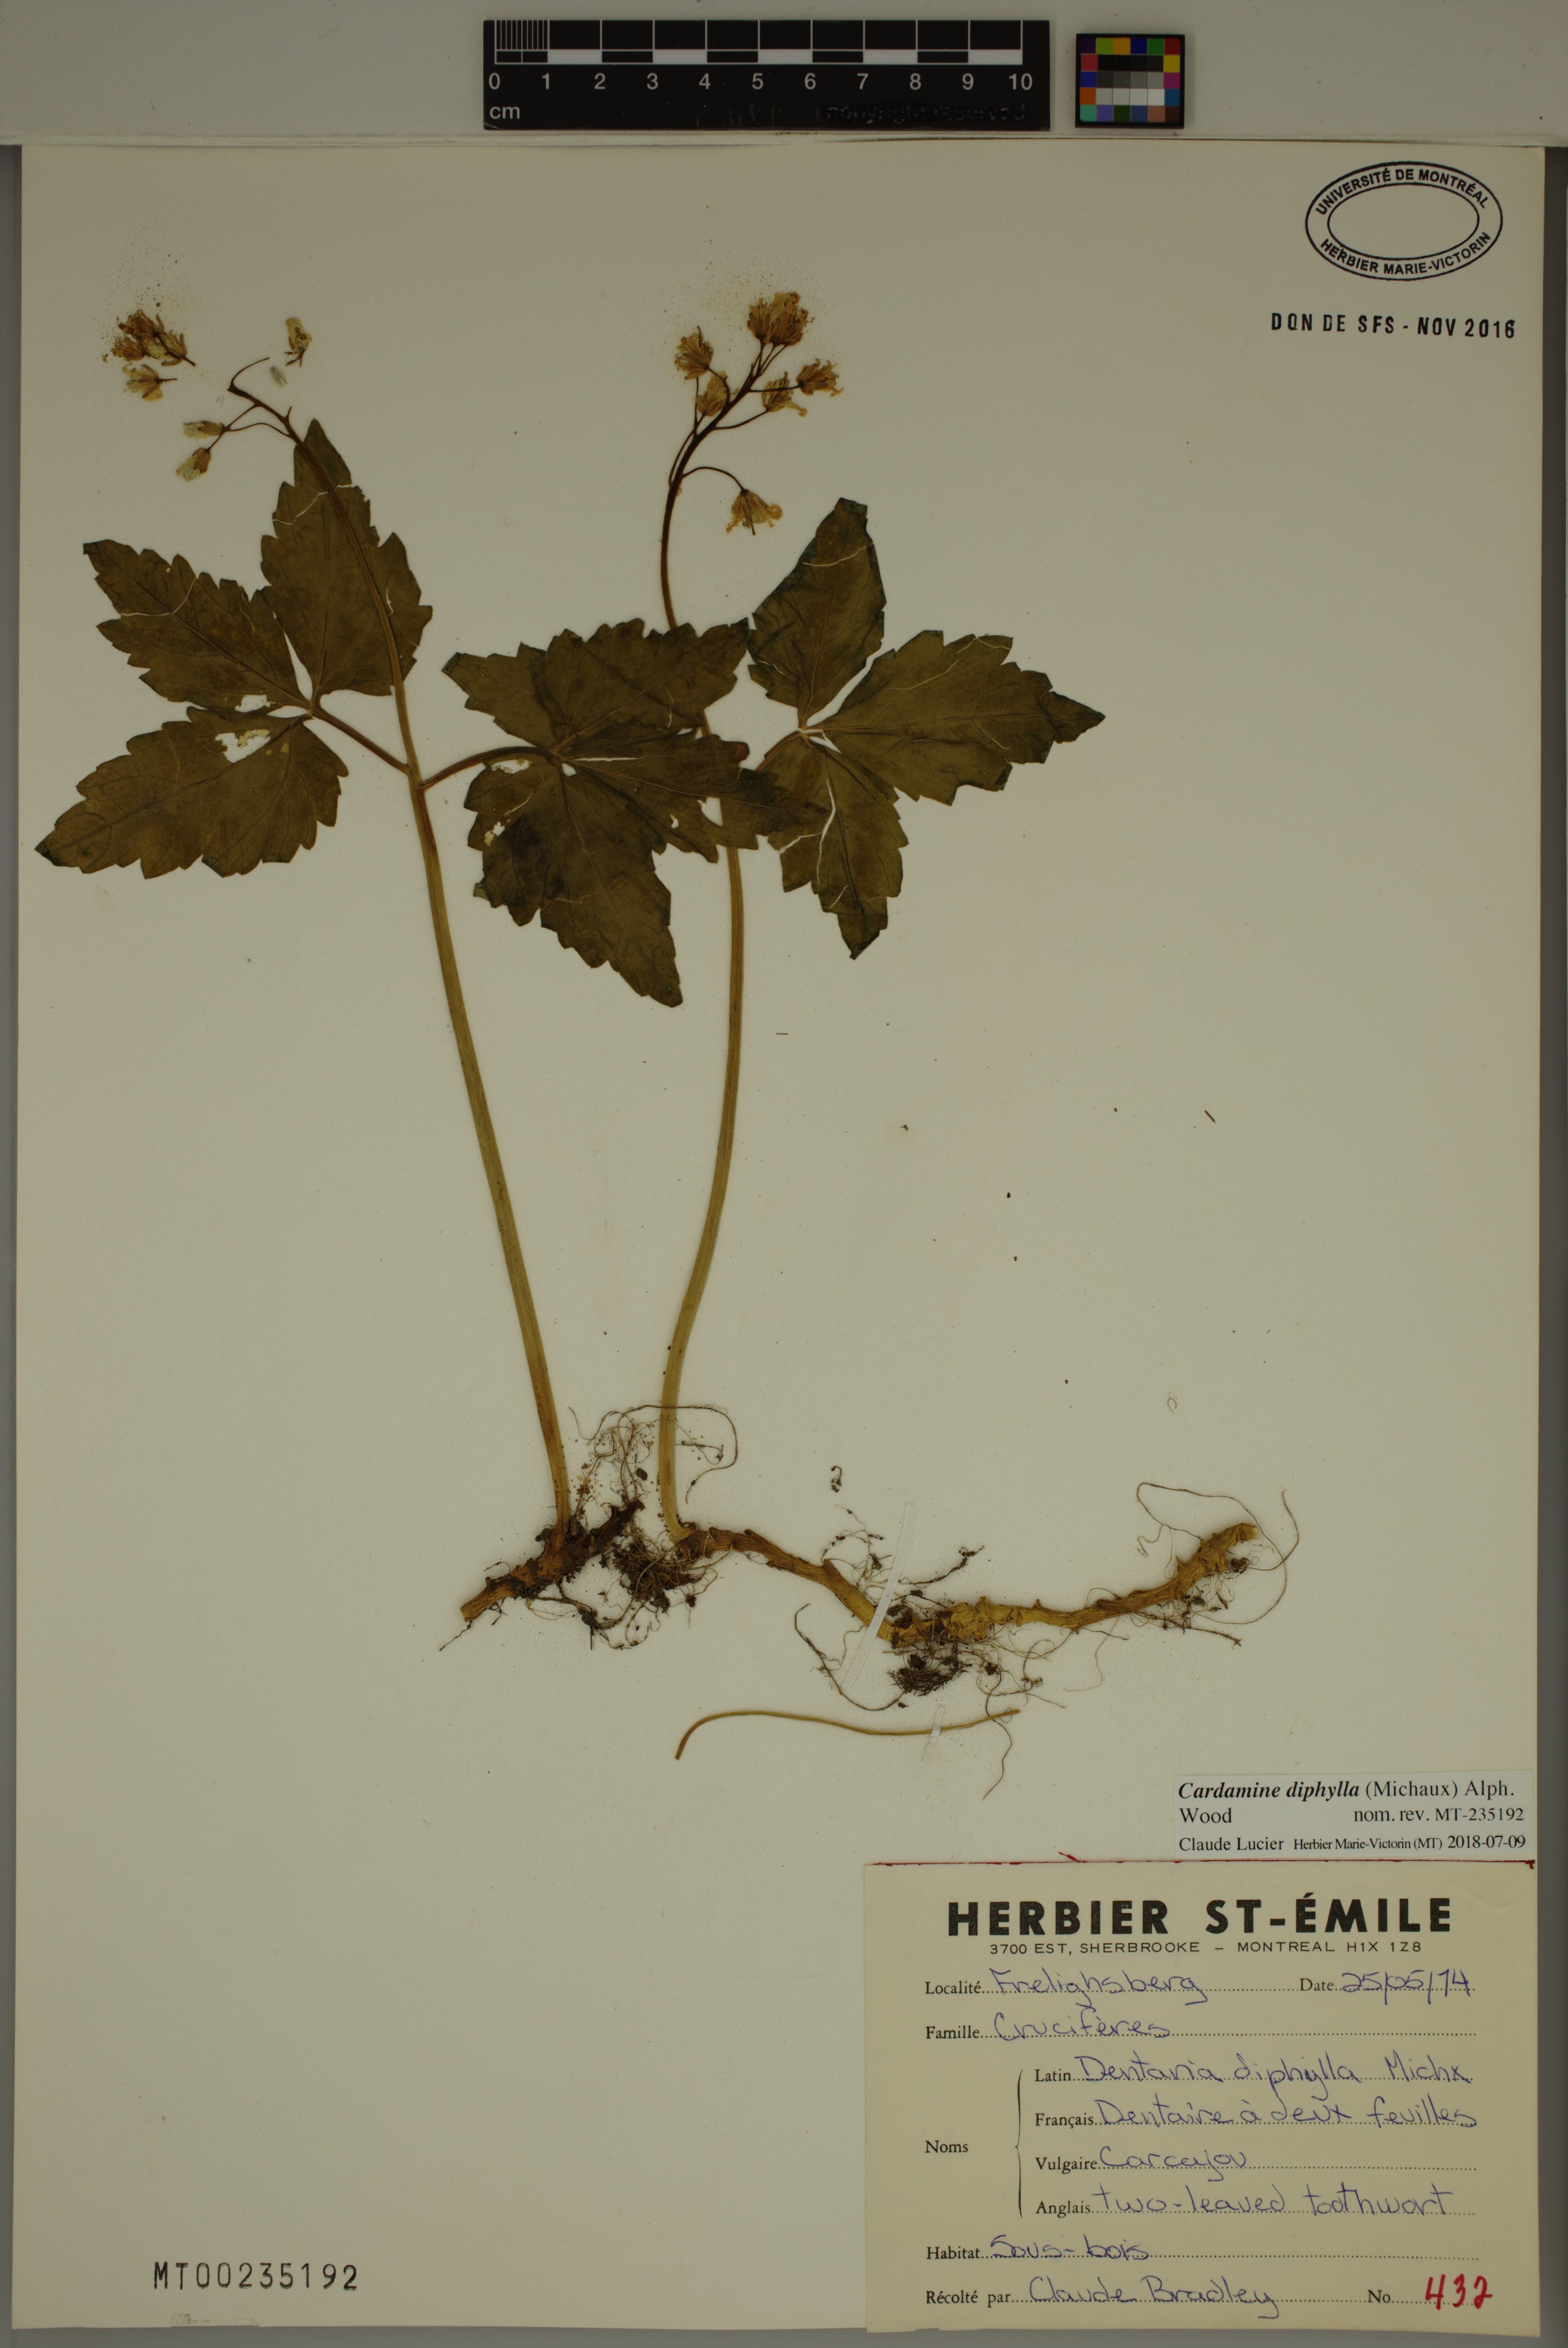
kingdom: Plantae
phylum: Tracheophyta
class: Magnoliopsida
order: Brassicales
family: Brassicaceae
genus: Cardamine
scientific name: Cardamine diphylla
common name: Broad-leaved toothwort
